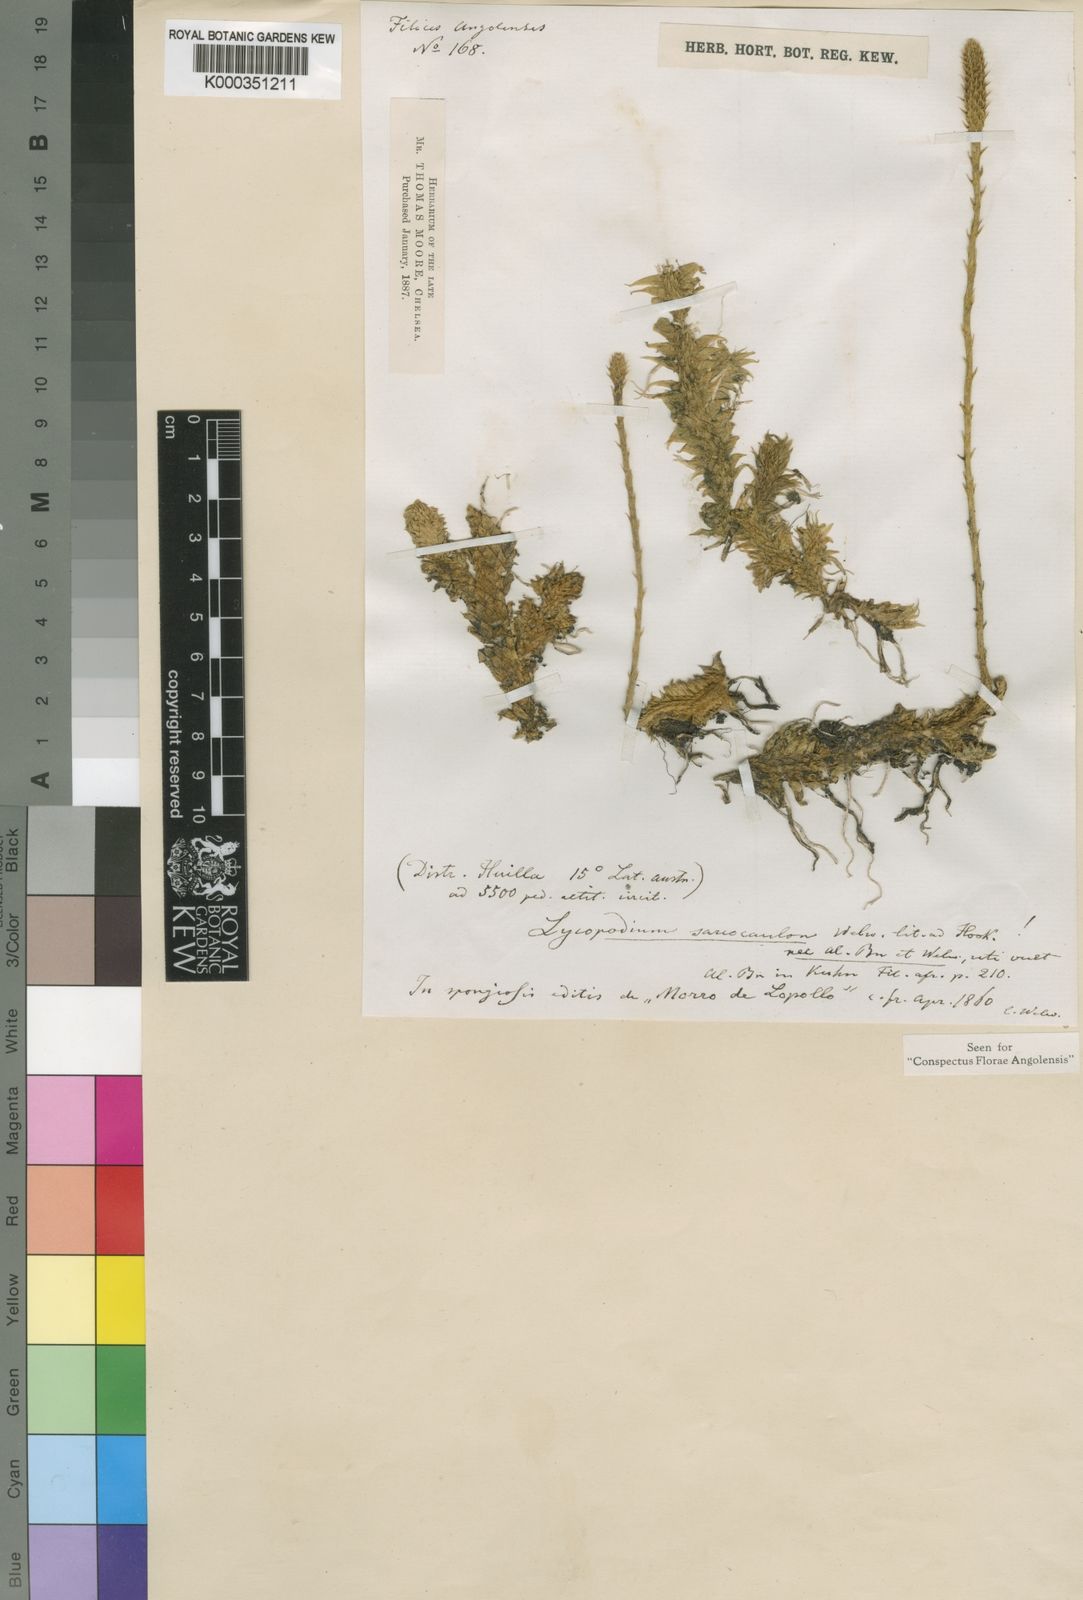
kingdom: Plantae
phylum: Tracheophyta
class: Lycopodiopsida
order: Lycopodiales
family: Lycopodiaceae
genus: Pseudolycopodiella
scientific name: Pseudolycopodiella sarcocaulos
